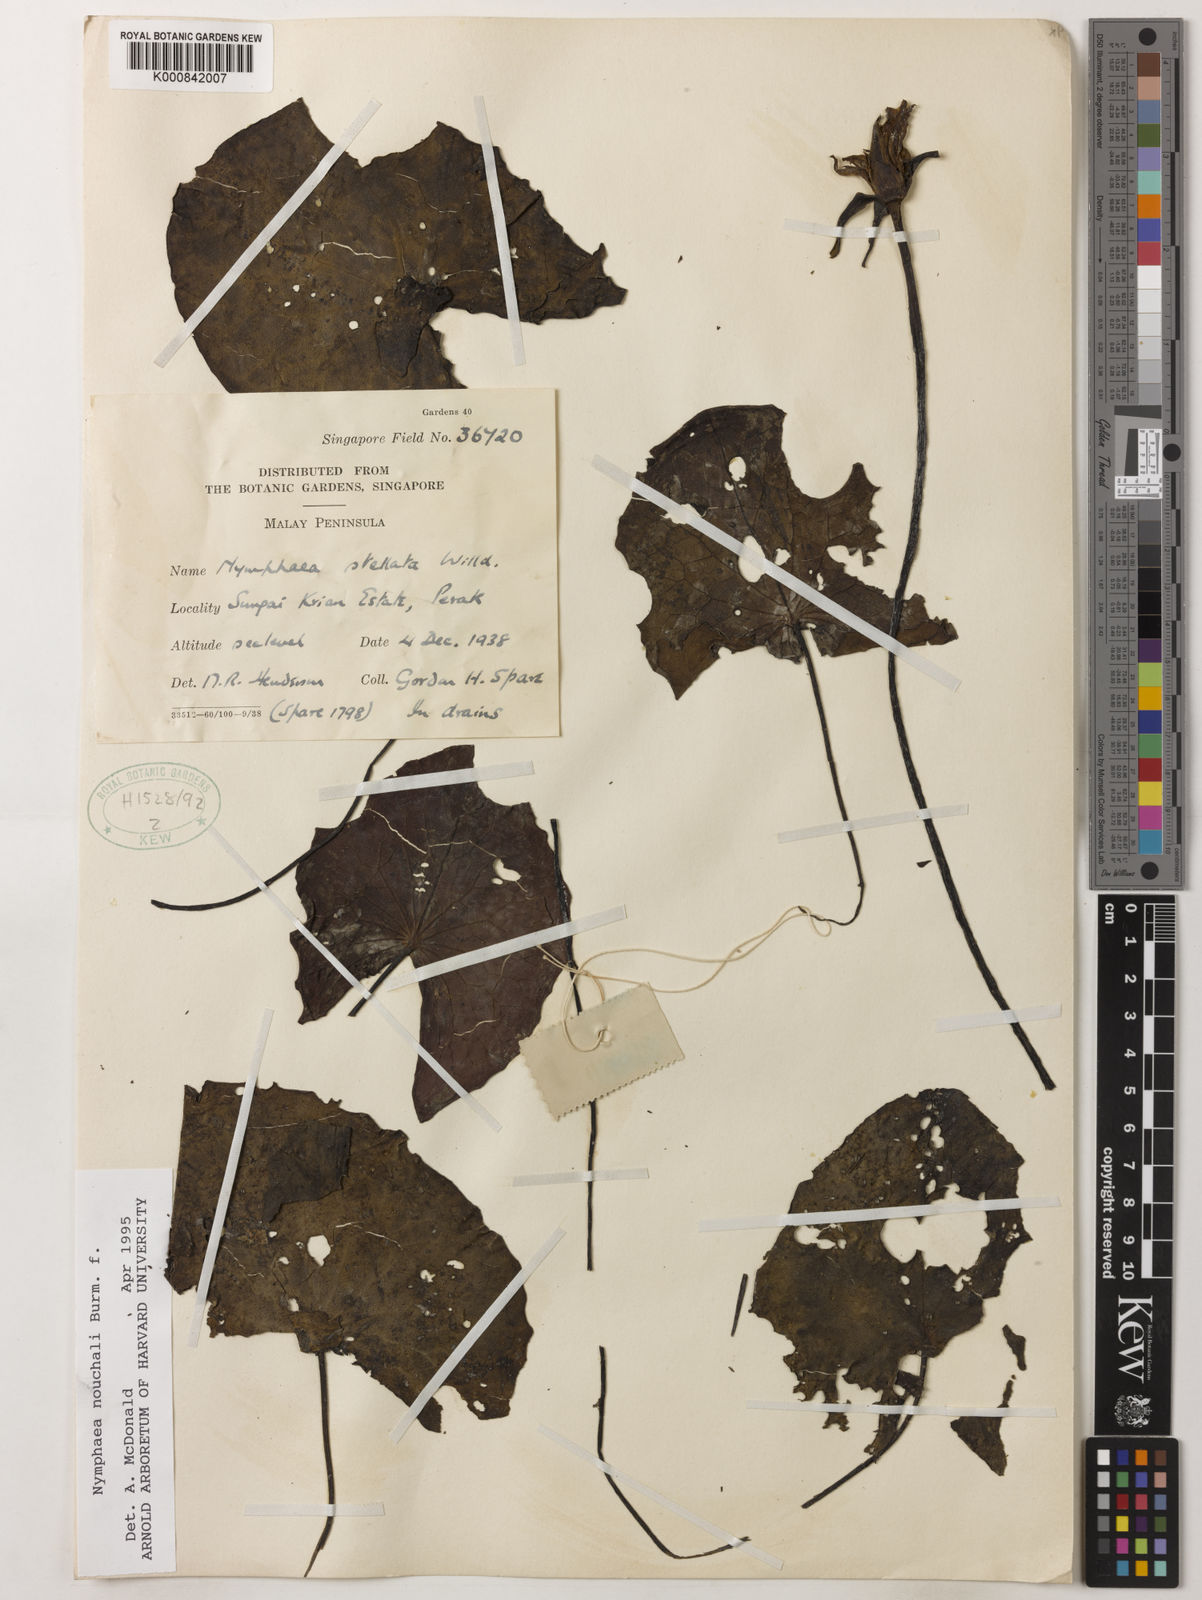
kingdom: Plantae
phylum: Tracheophyta
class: Magnoliopsida
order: Nymphaeales
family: Nymphaeaceae
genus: Nymphaea
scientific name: Nymphaea nouchali
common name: Blue lotus
